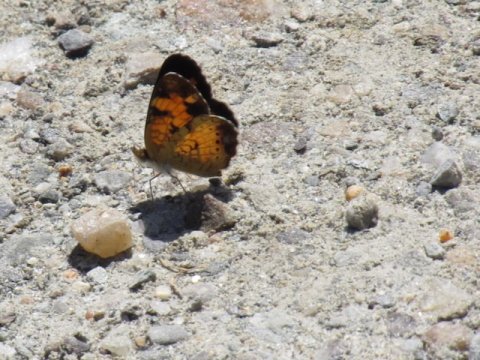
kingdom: Animalia
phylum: Arthropoda
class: Insecta
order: Lepidoptera
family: Nymphalidae
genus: Phyciodes
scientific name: Phyciodes tharos
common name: Pearl Crescent
